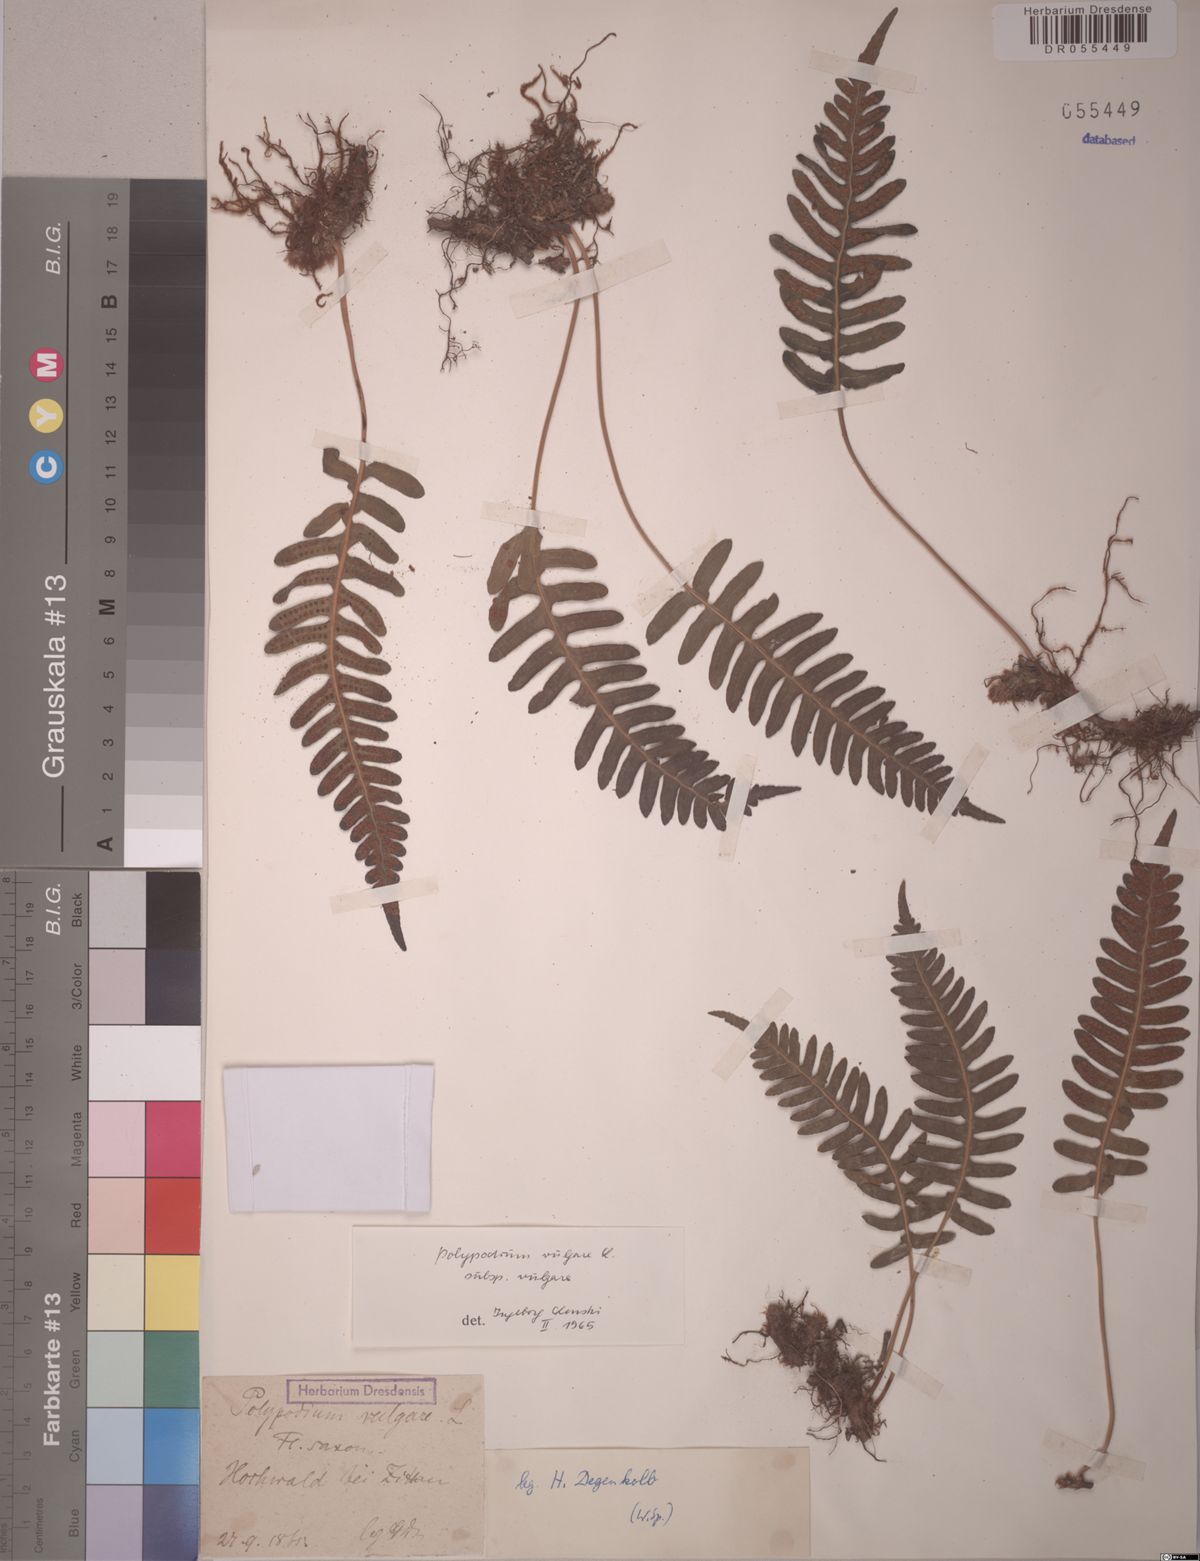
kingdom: Plantae
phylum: Tracheophyta
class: Polypodiopsida
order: Polypodiales
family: Polypodiaceae
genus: Polypodium
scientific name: Polypodium vulgare
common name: Common polypody
